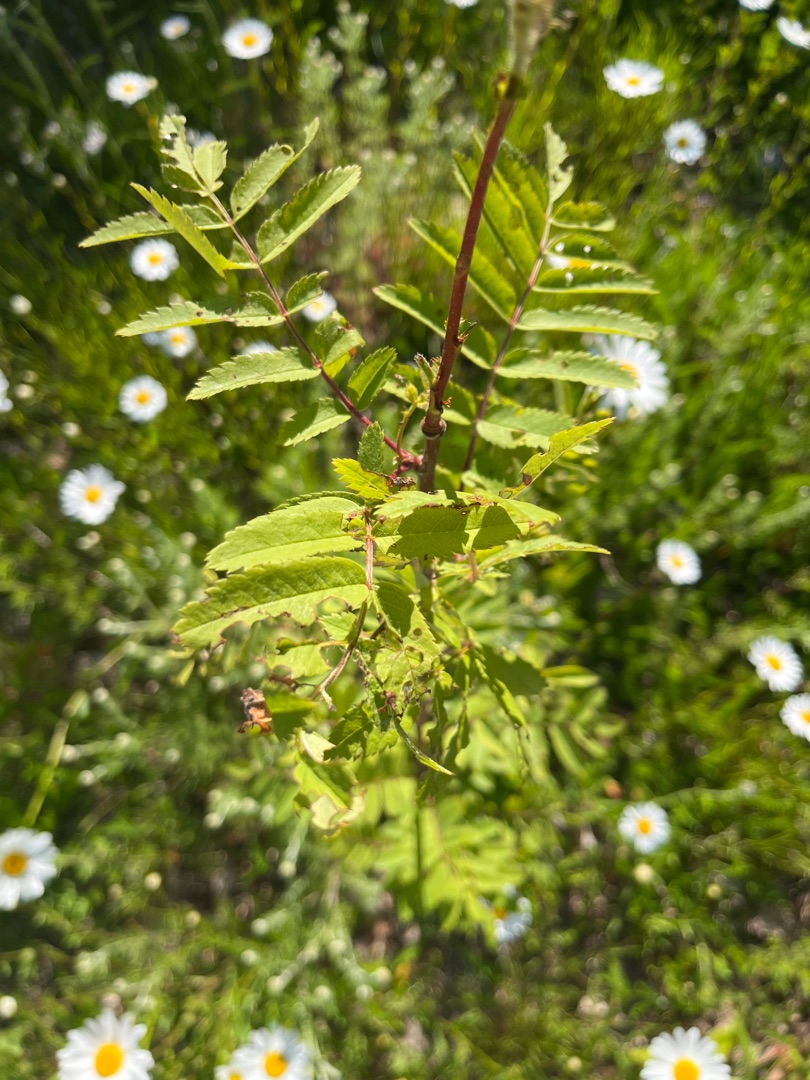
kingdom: Plantae
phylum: Tracheophyta
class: Magnoliopsida
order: Rosales
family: Rosaceae
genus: Sorbus
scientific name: Sorbus aucuparia
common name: Almindelig røn
